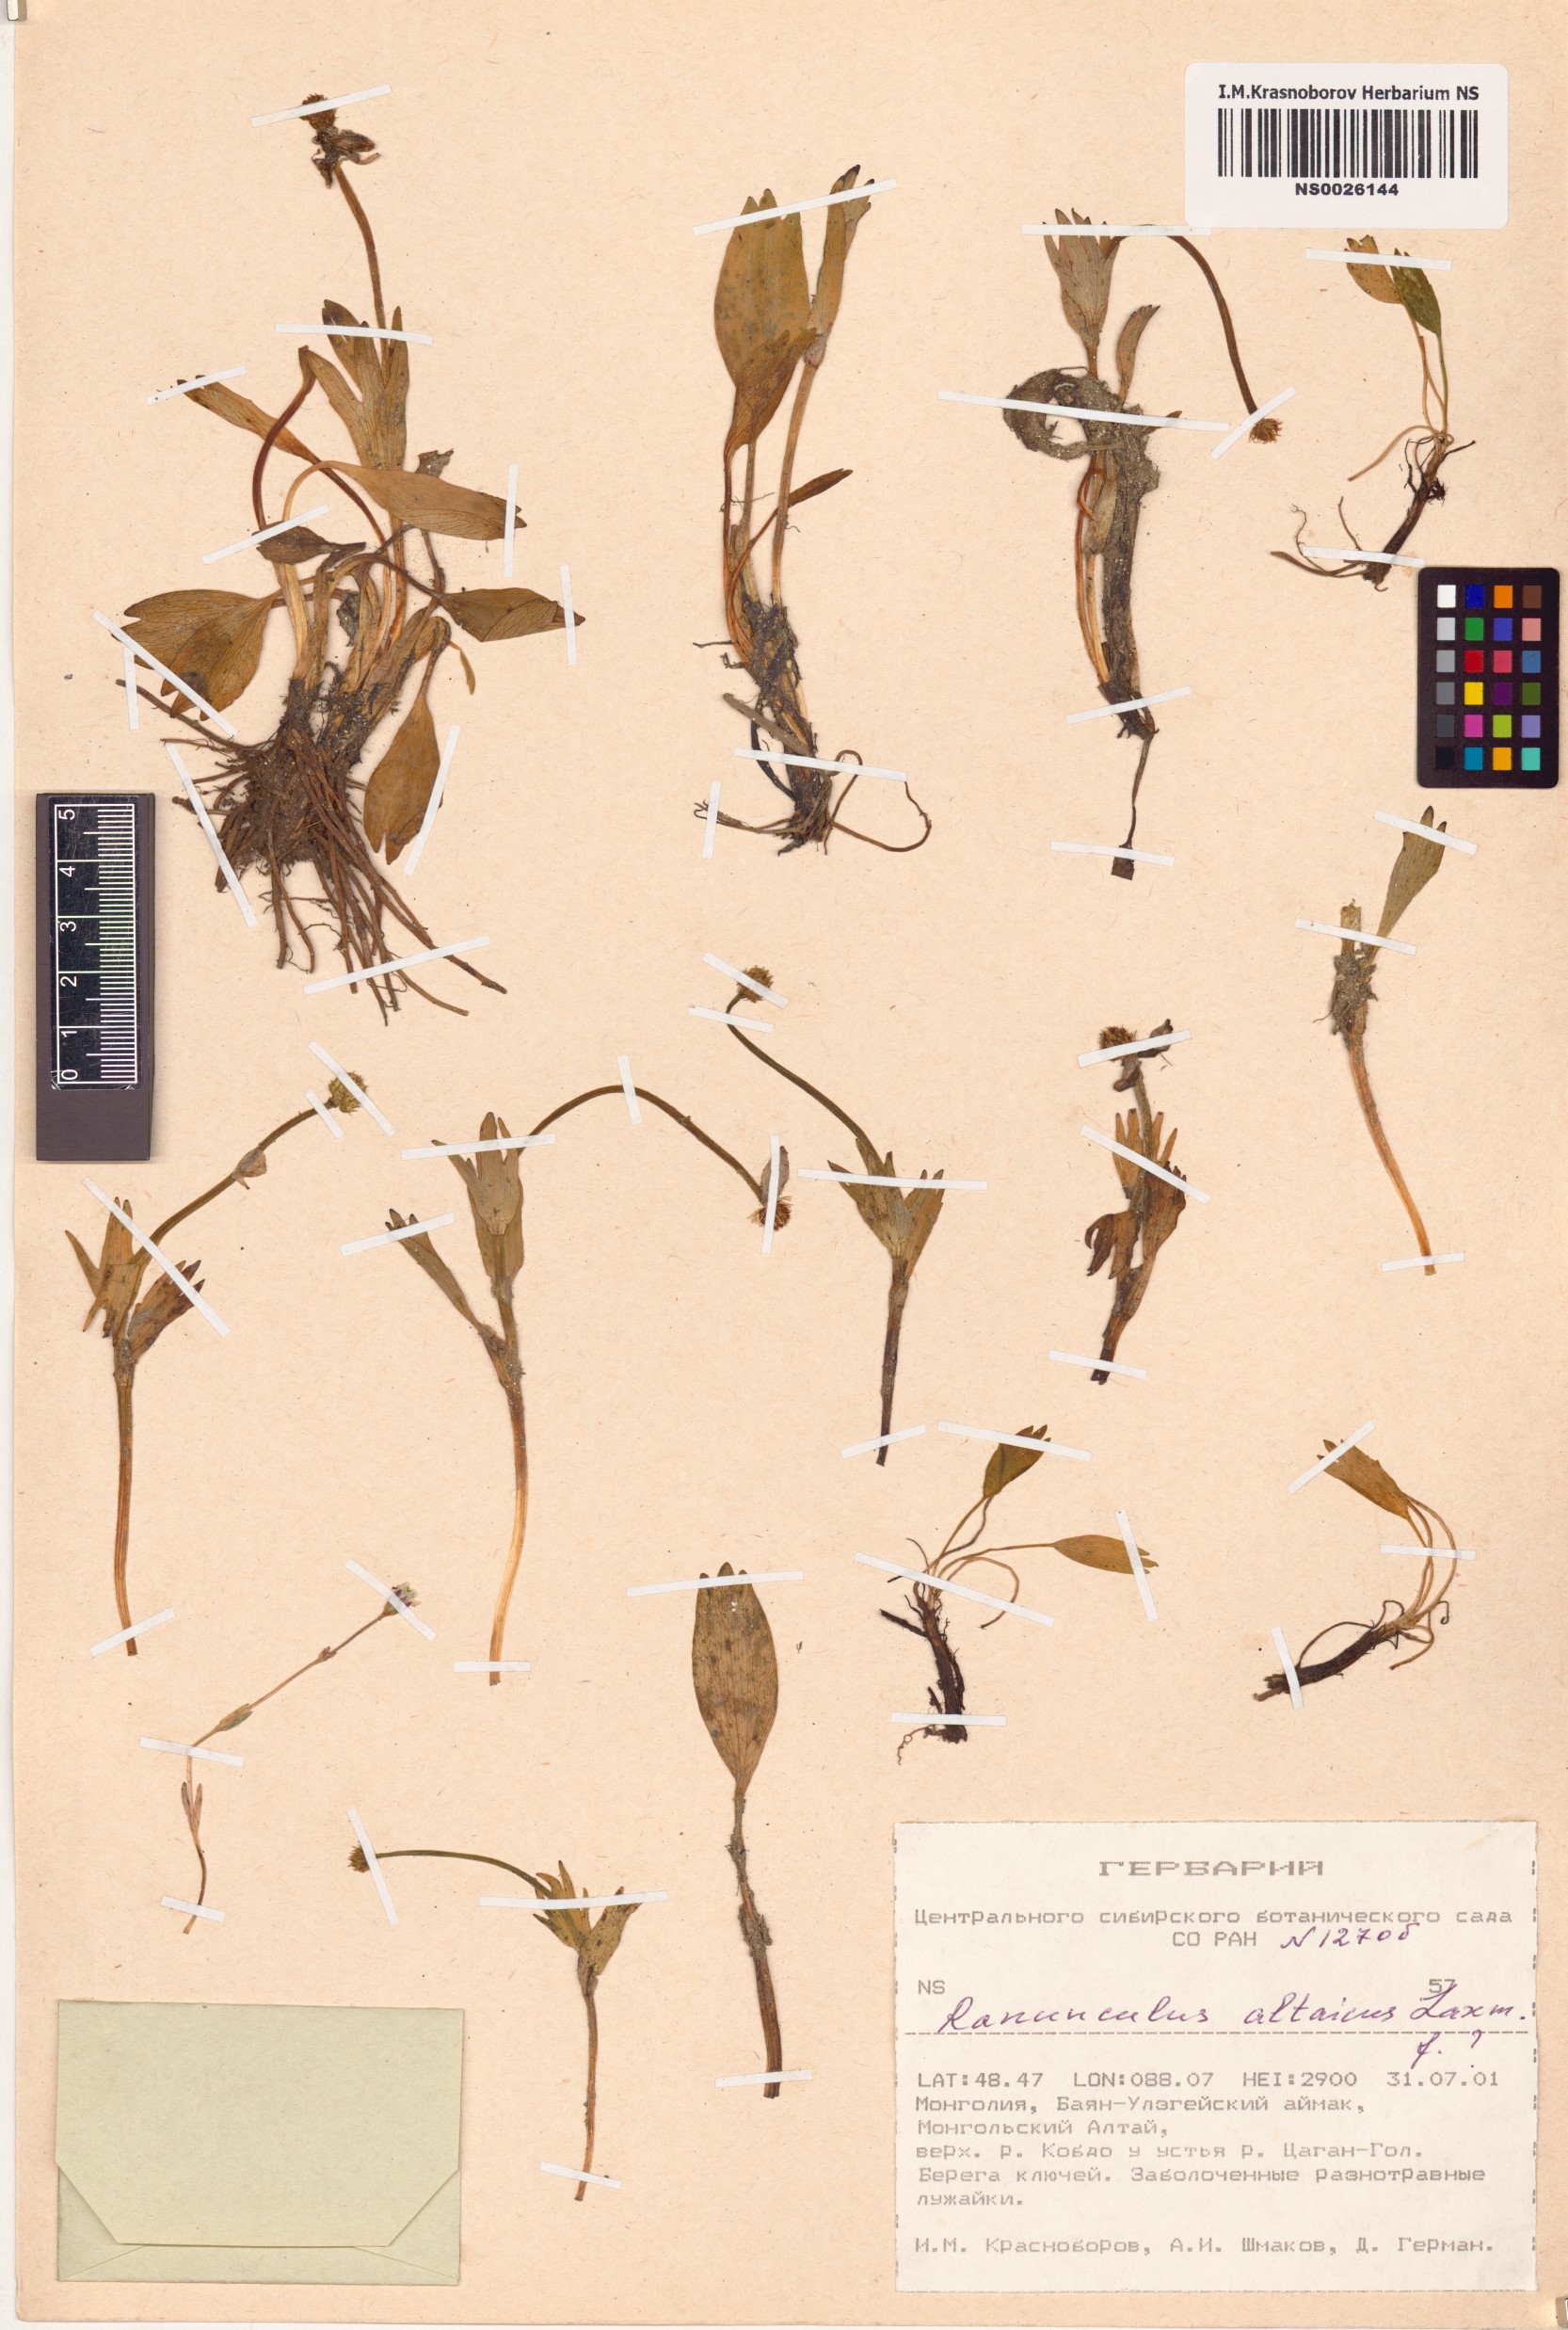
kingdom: Plantae
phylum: Tracheophyta
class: Magnoliopsida
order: Ranunculales
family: Ranunculaceae
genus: Ranunculus
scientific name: Ranunculus altaicus
